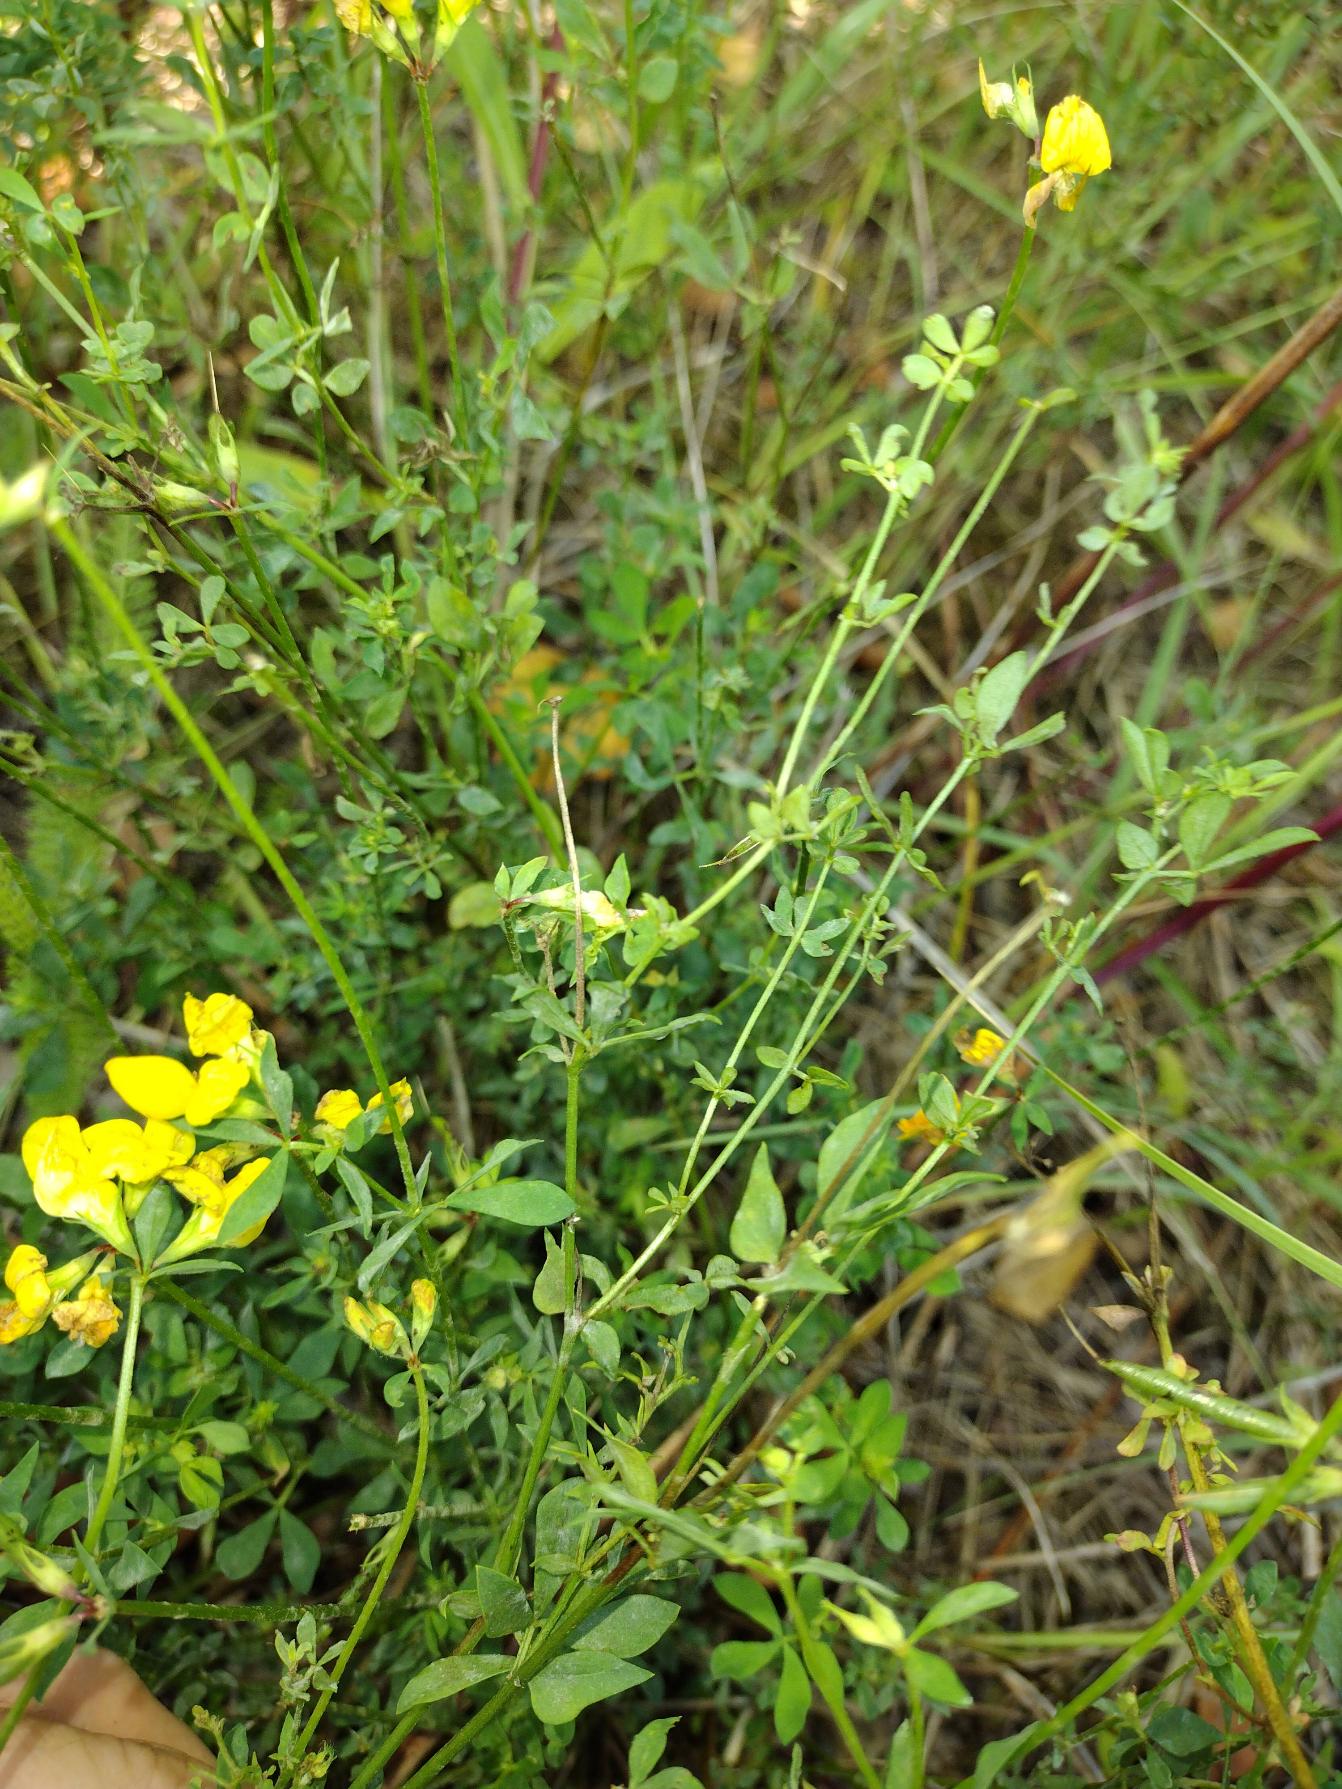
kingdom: Plantae
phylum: Tracheophyta
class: Magnoliopsida
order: Fabales
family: Fabaceae
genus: Lotus
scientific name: Lotus corniculatus
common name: Almindelig kællingetand
